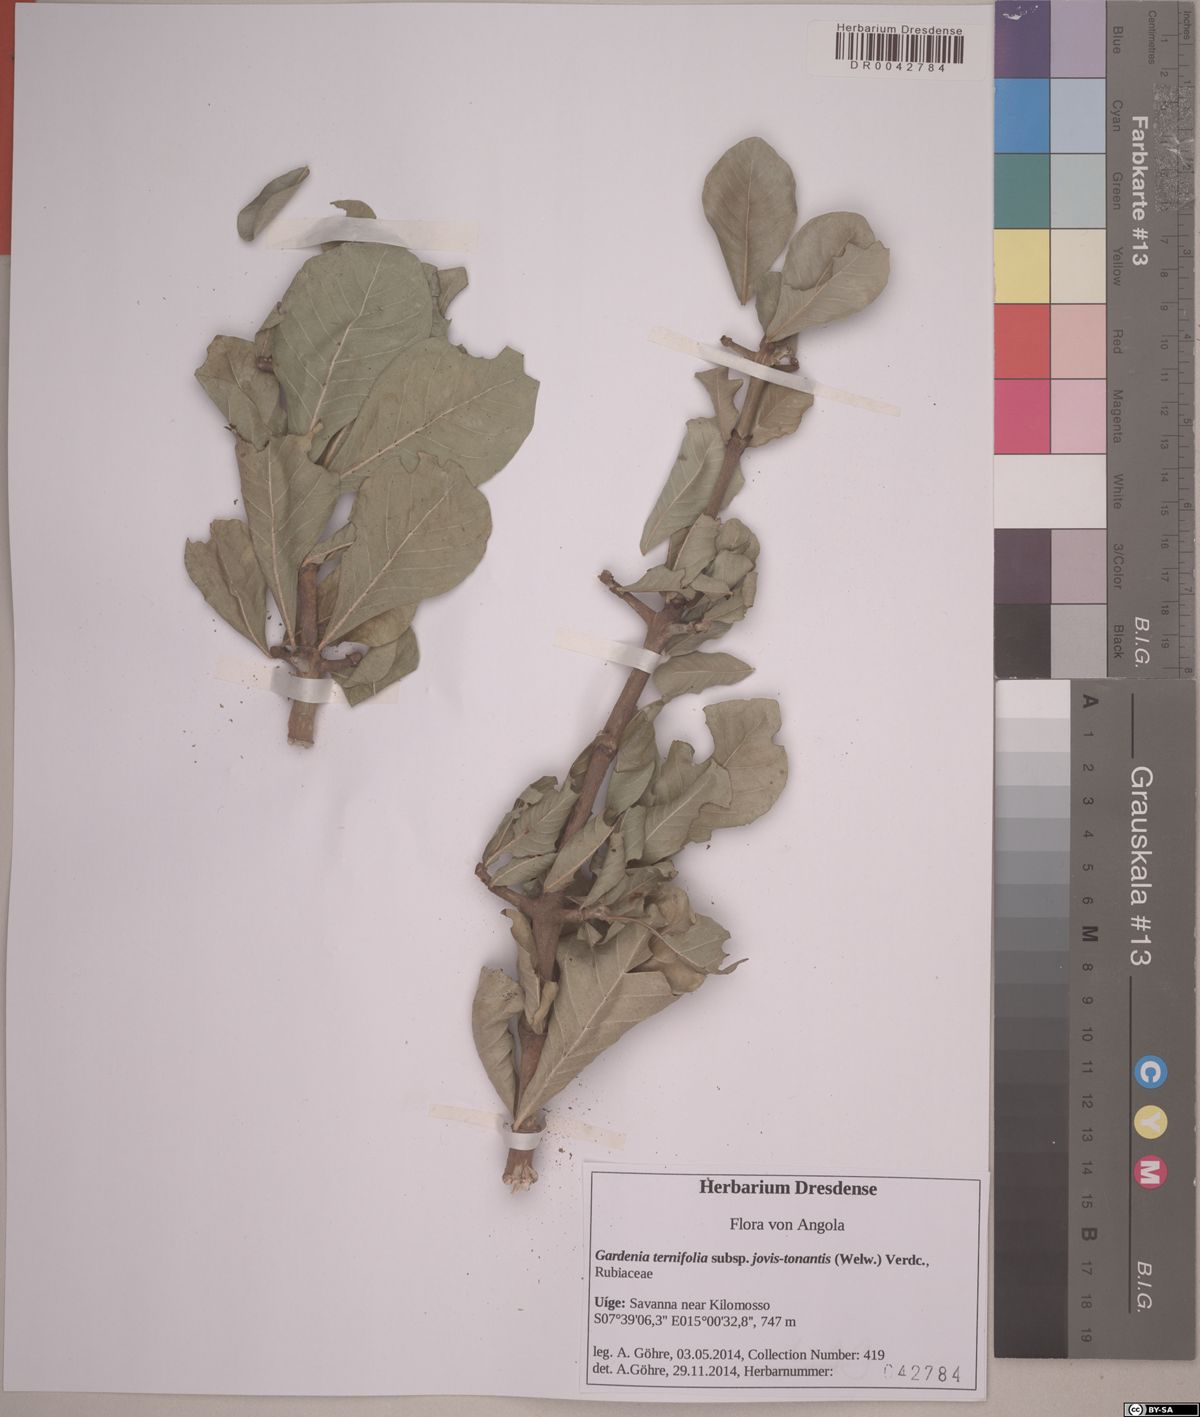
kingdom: Plantae
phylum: Tracheophyta
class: Magnoliopsida
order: Gentianales
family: Rubiaceae
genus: Gardenia
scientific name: Gardenia ternifolia
